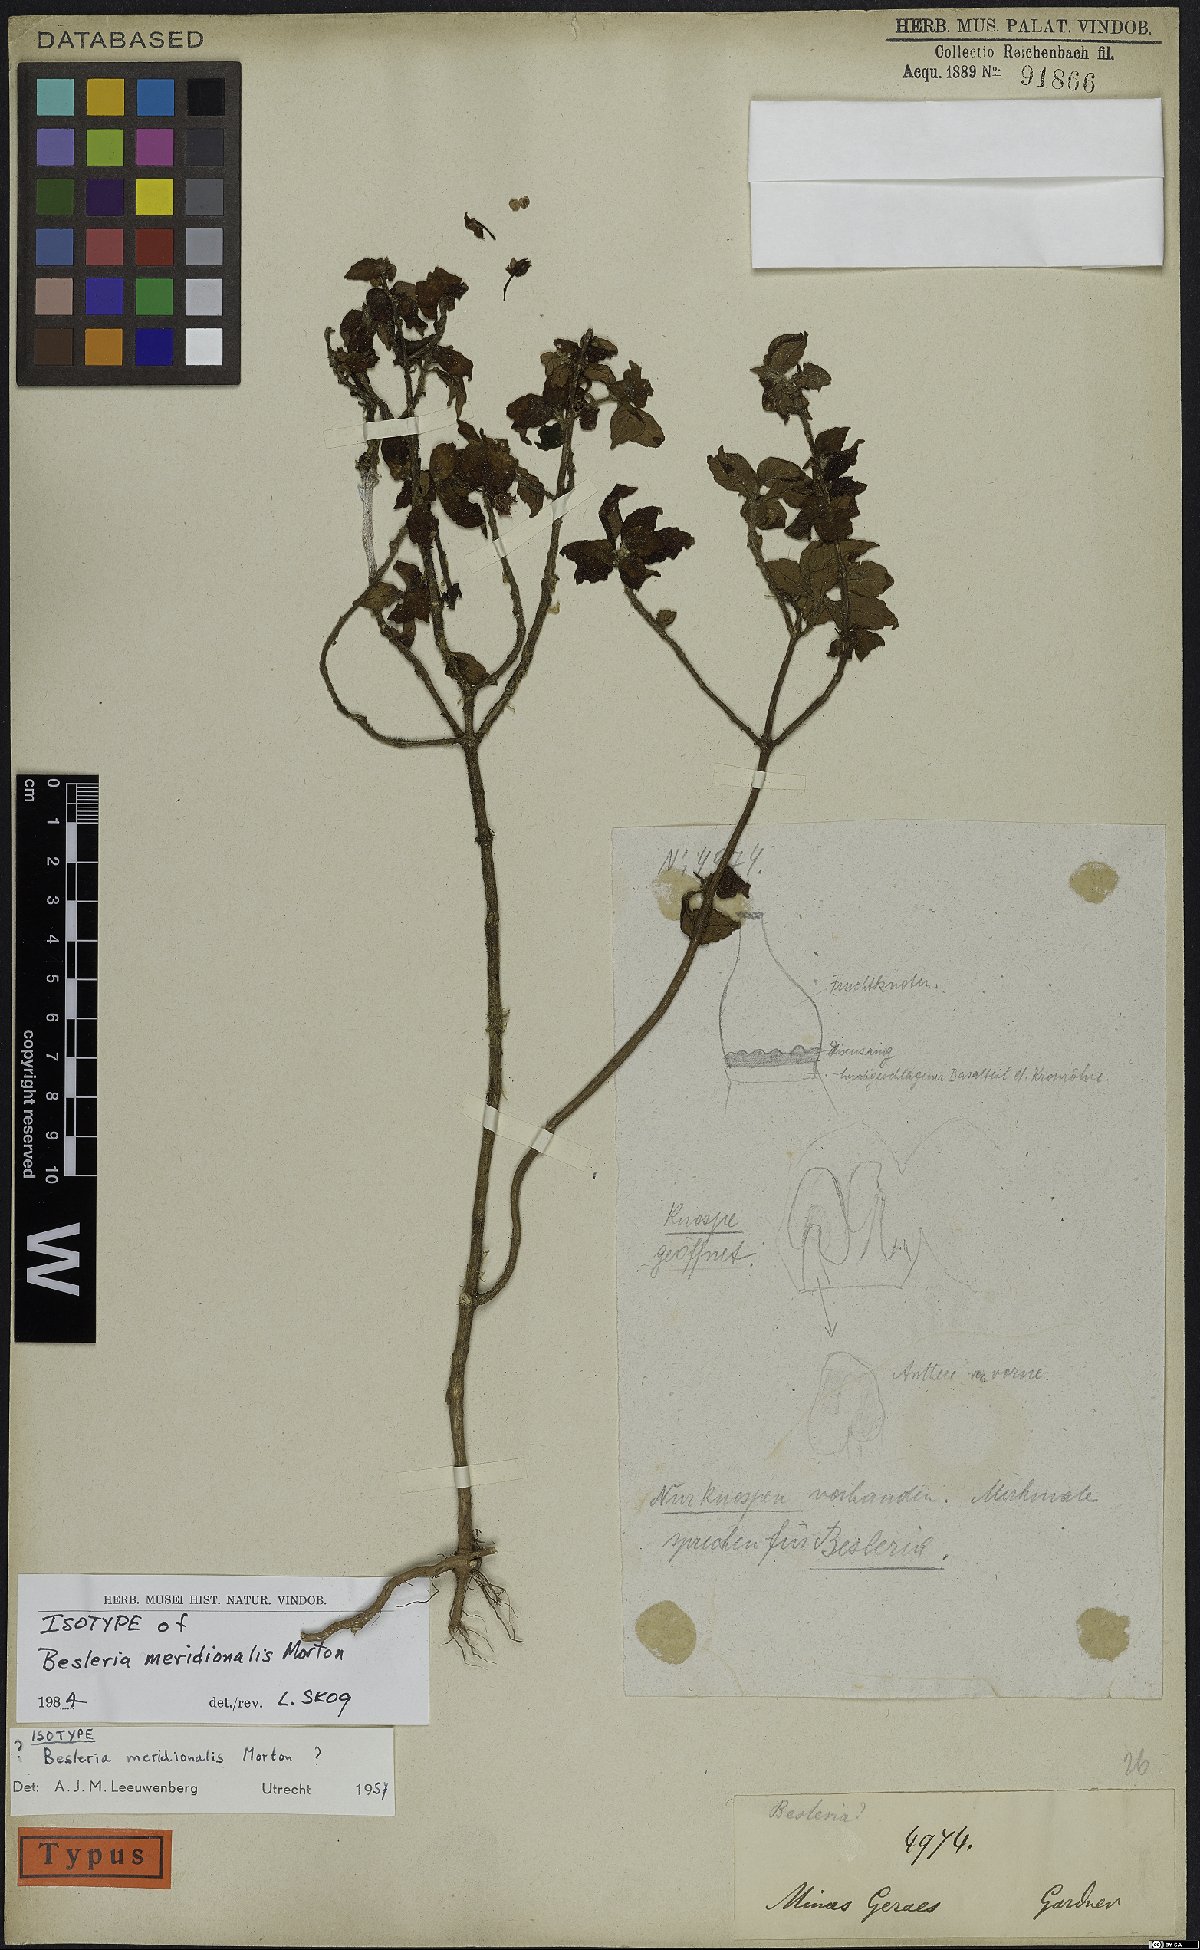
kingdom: Plantae
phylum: Tracheophyta
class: Magnoliopsida
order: Lamiales
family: Gesneriaceae
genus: Besleria
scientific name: Besleria meridionalis
